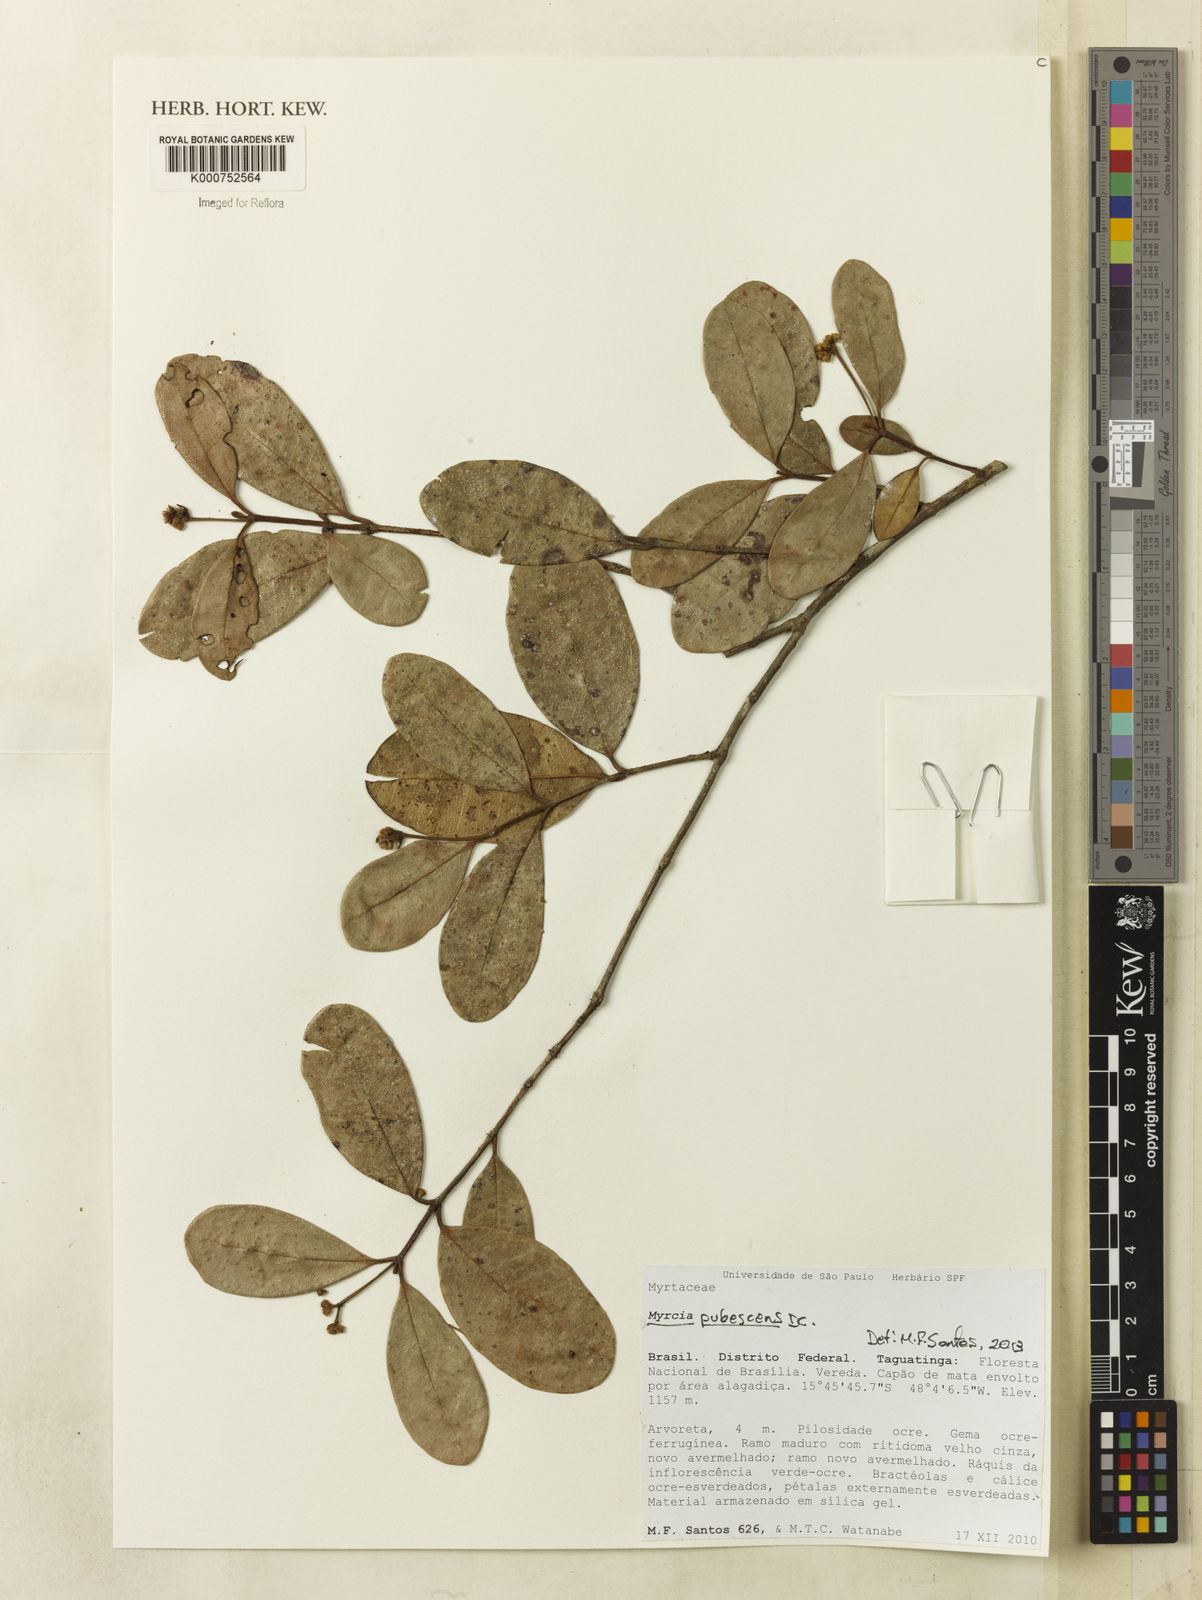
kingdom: Plantae
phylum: Tracheophyta
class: Magnoliopsida
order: Myrtales
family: Myrtaceae
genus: Myrcia
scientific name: Myrcia pubescens
